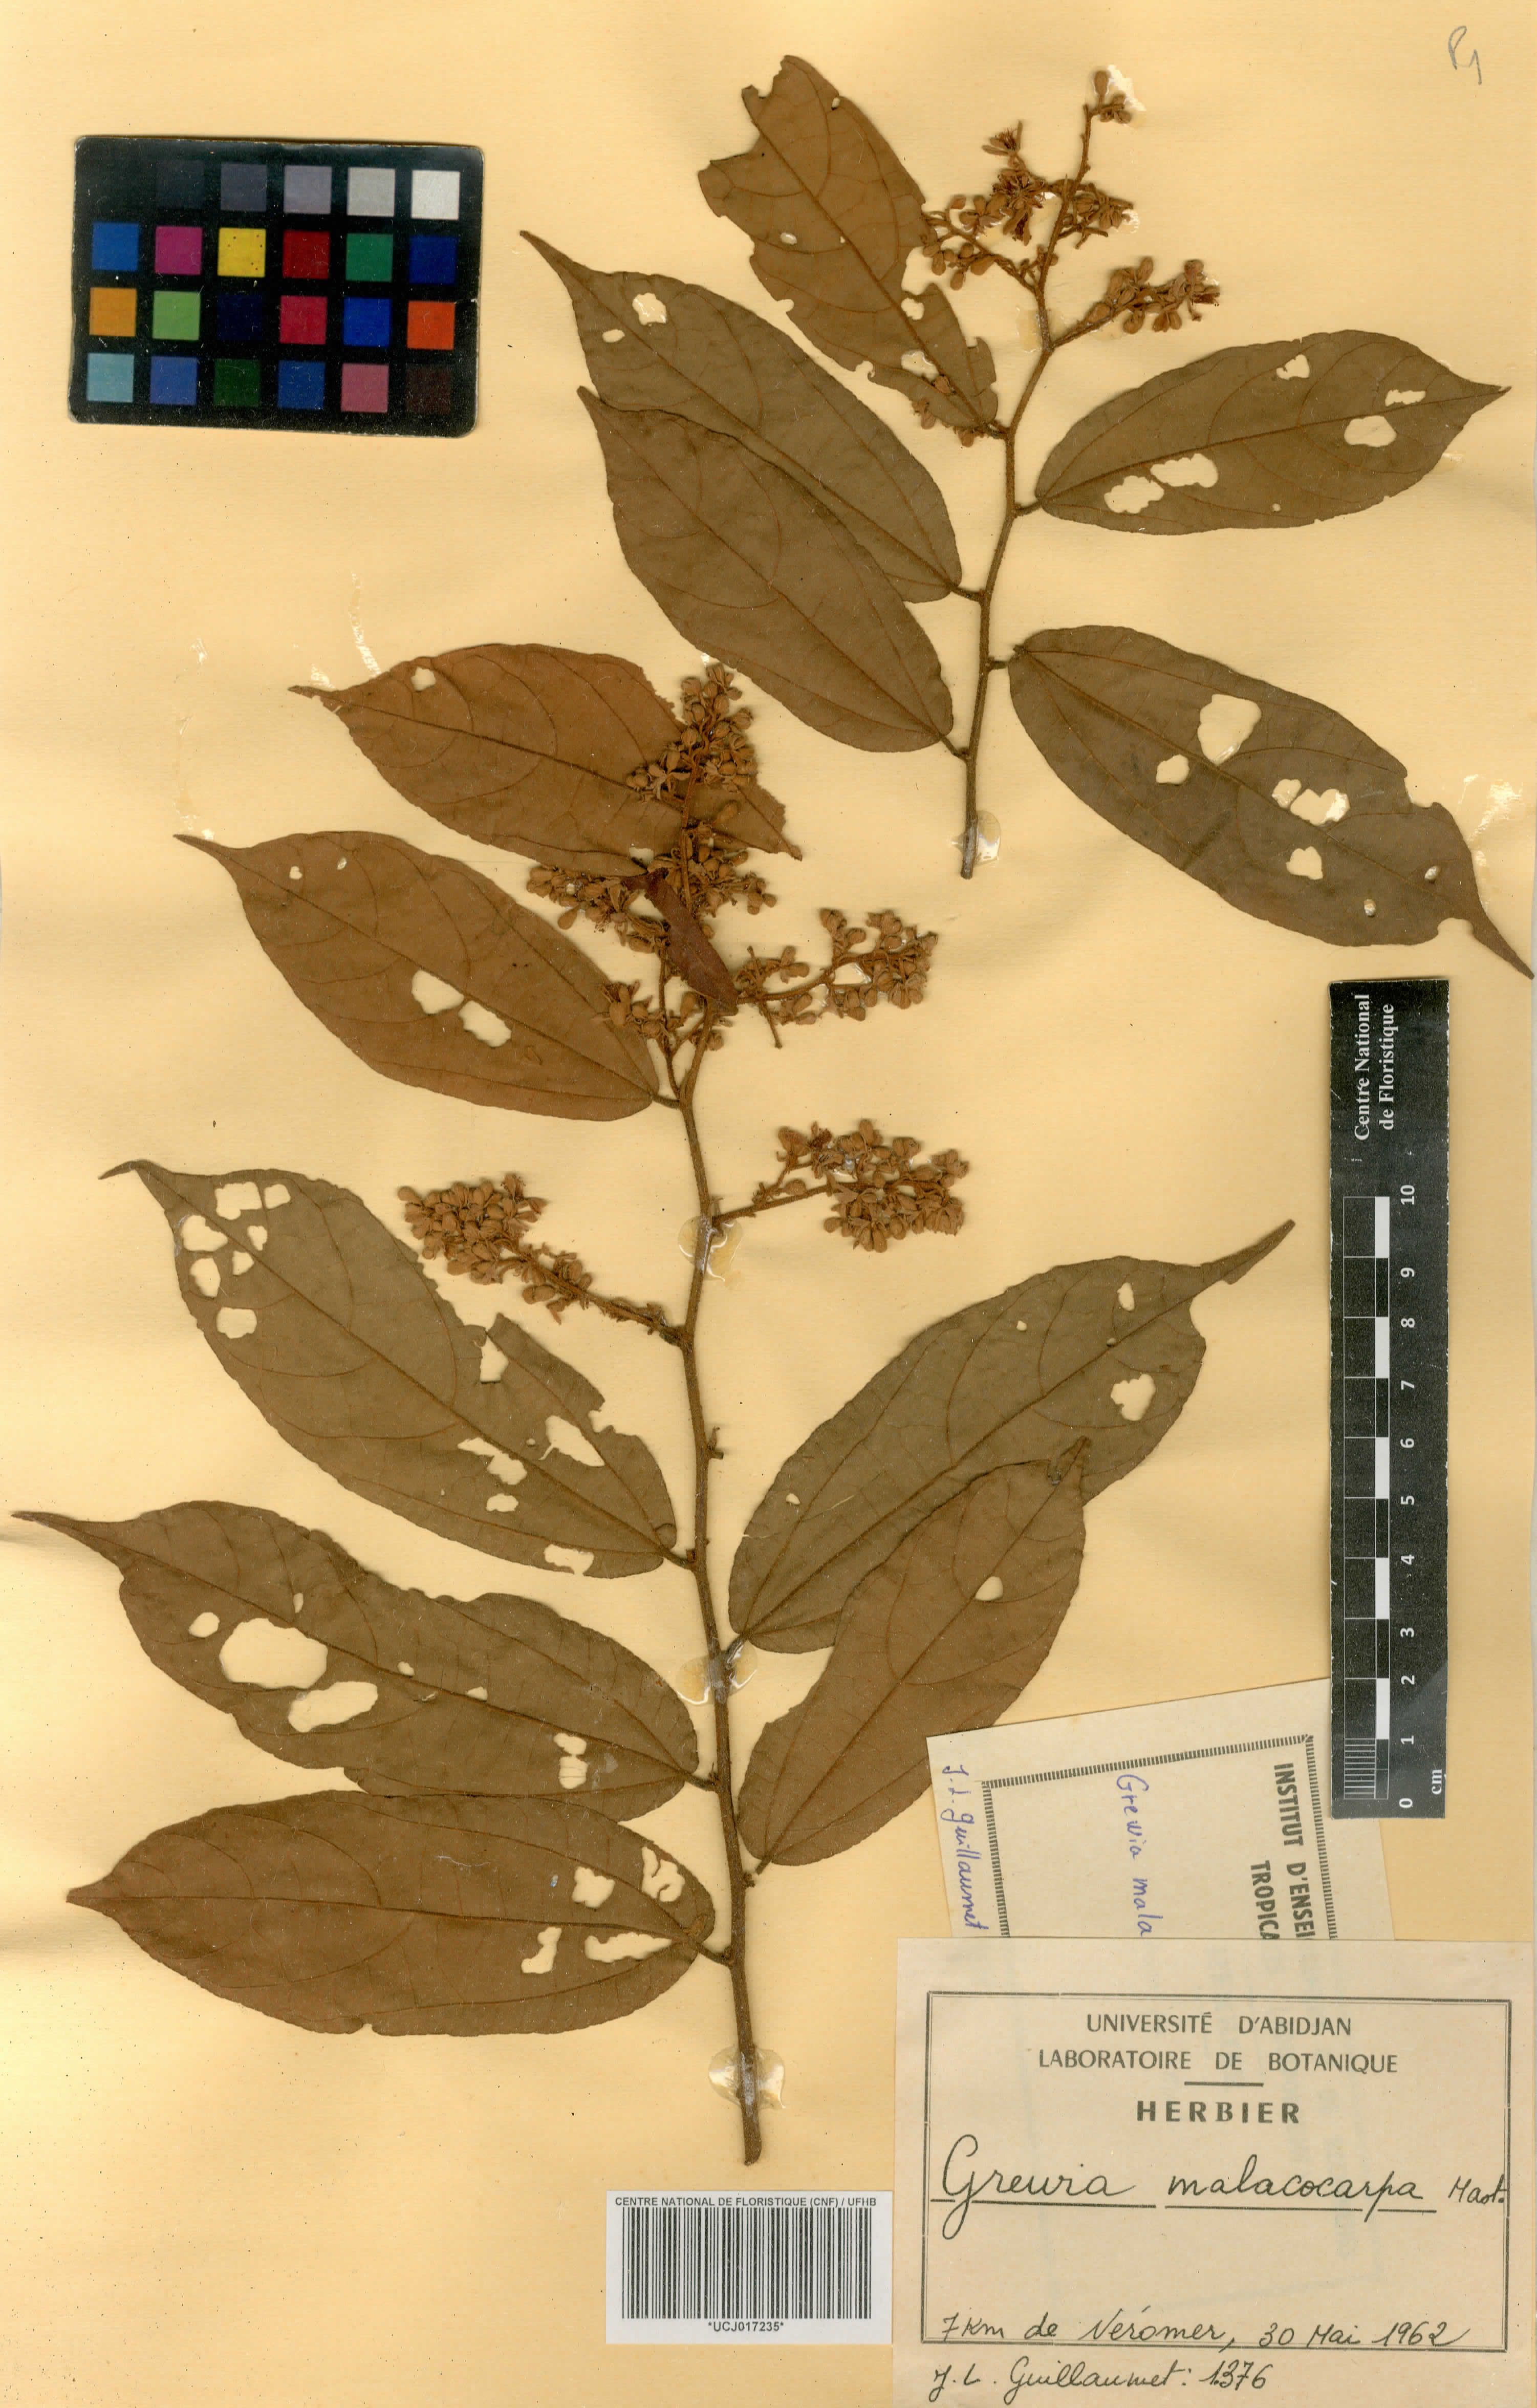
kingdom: Plantae
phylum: Tracheophyta
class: Magnoliopsida
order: Malvales
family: Malvaceae
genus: Microcos
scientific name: Microcos malacocarpa
